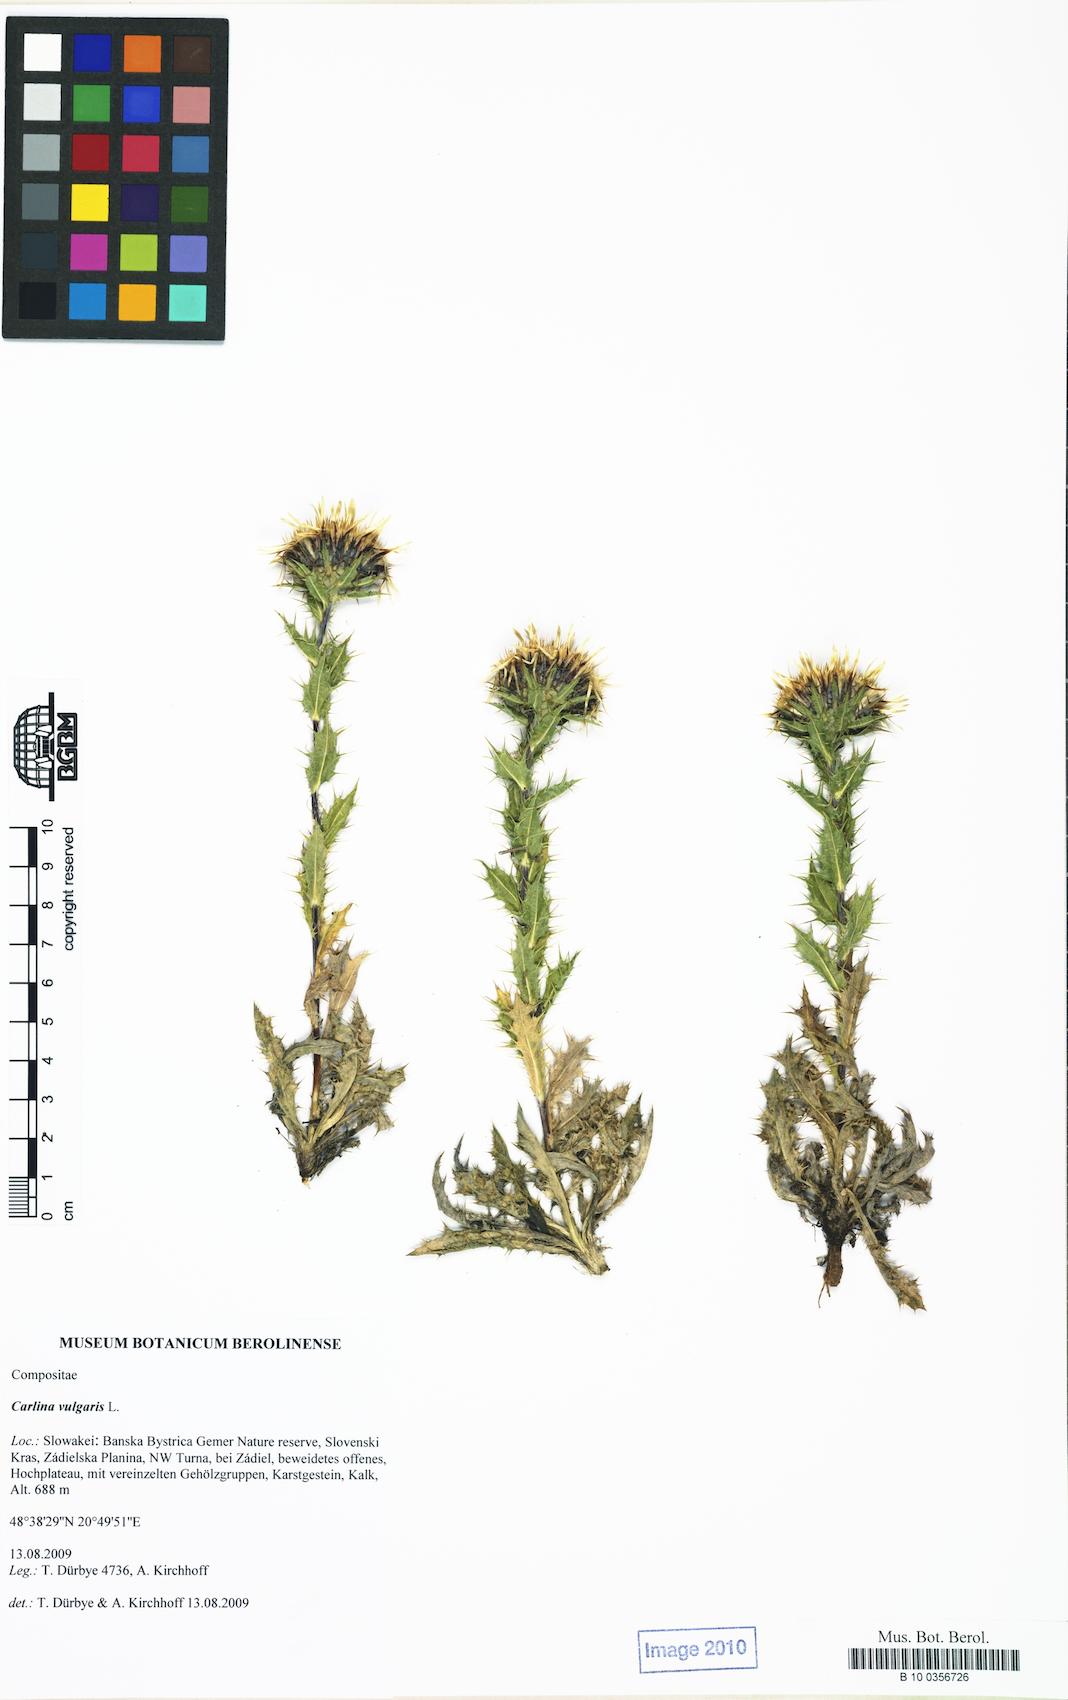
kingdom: Plantae
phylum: Tracheophyta
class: Magnoliopsida
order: Asterales
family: Asteraceae
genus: Carlina
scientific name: Carlina vulgaris
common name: Carline thistle
